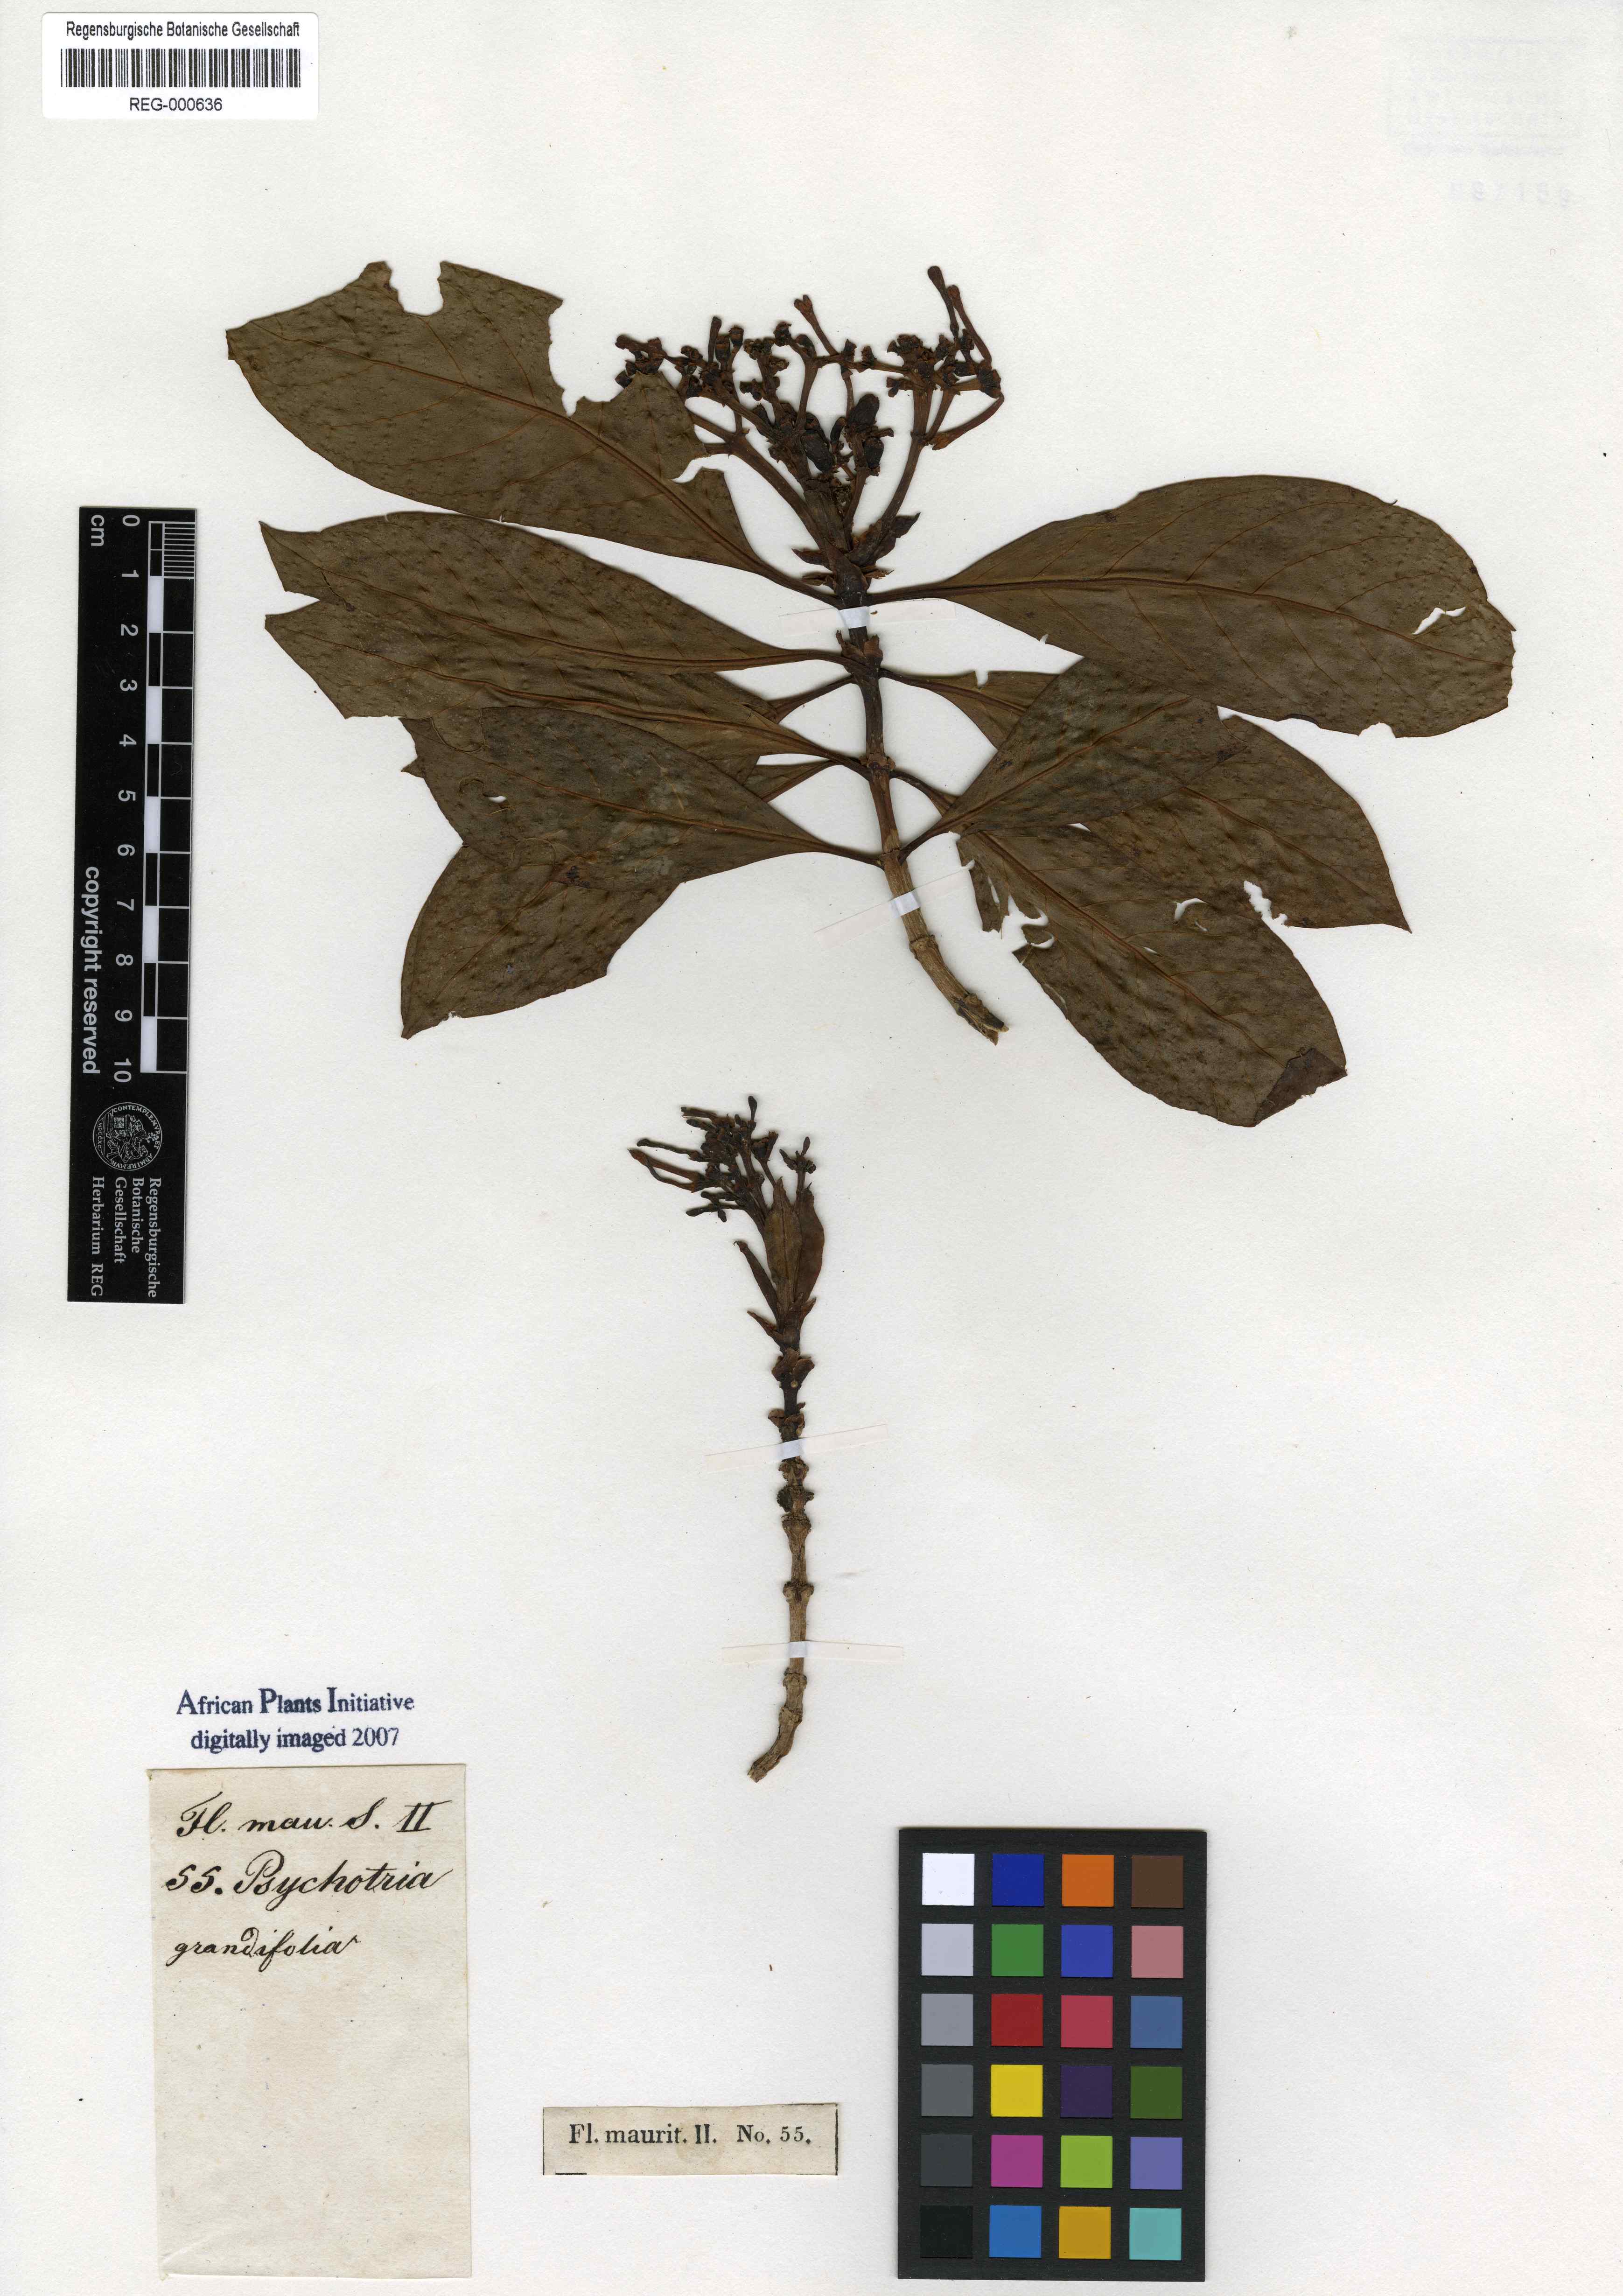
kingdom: Plantae
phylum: Tracheophyta
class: Magnoliopsida
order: Gentianales
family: Rubiaceae
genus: Chassalia
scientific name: Chassalia grandifolia
